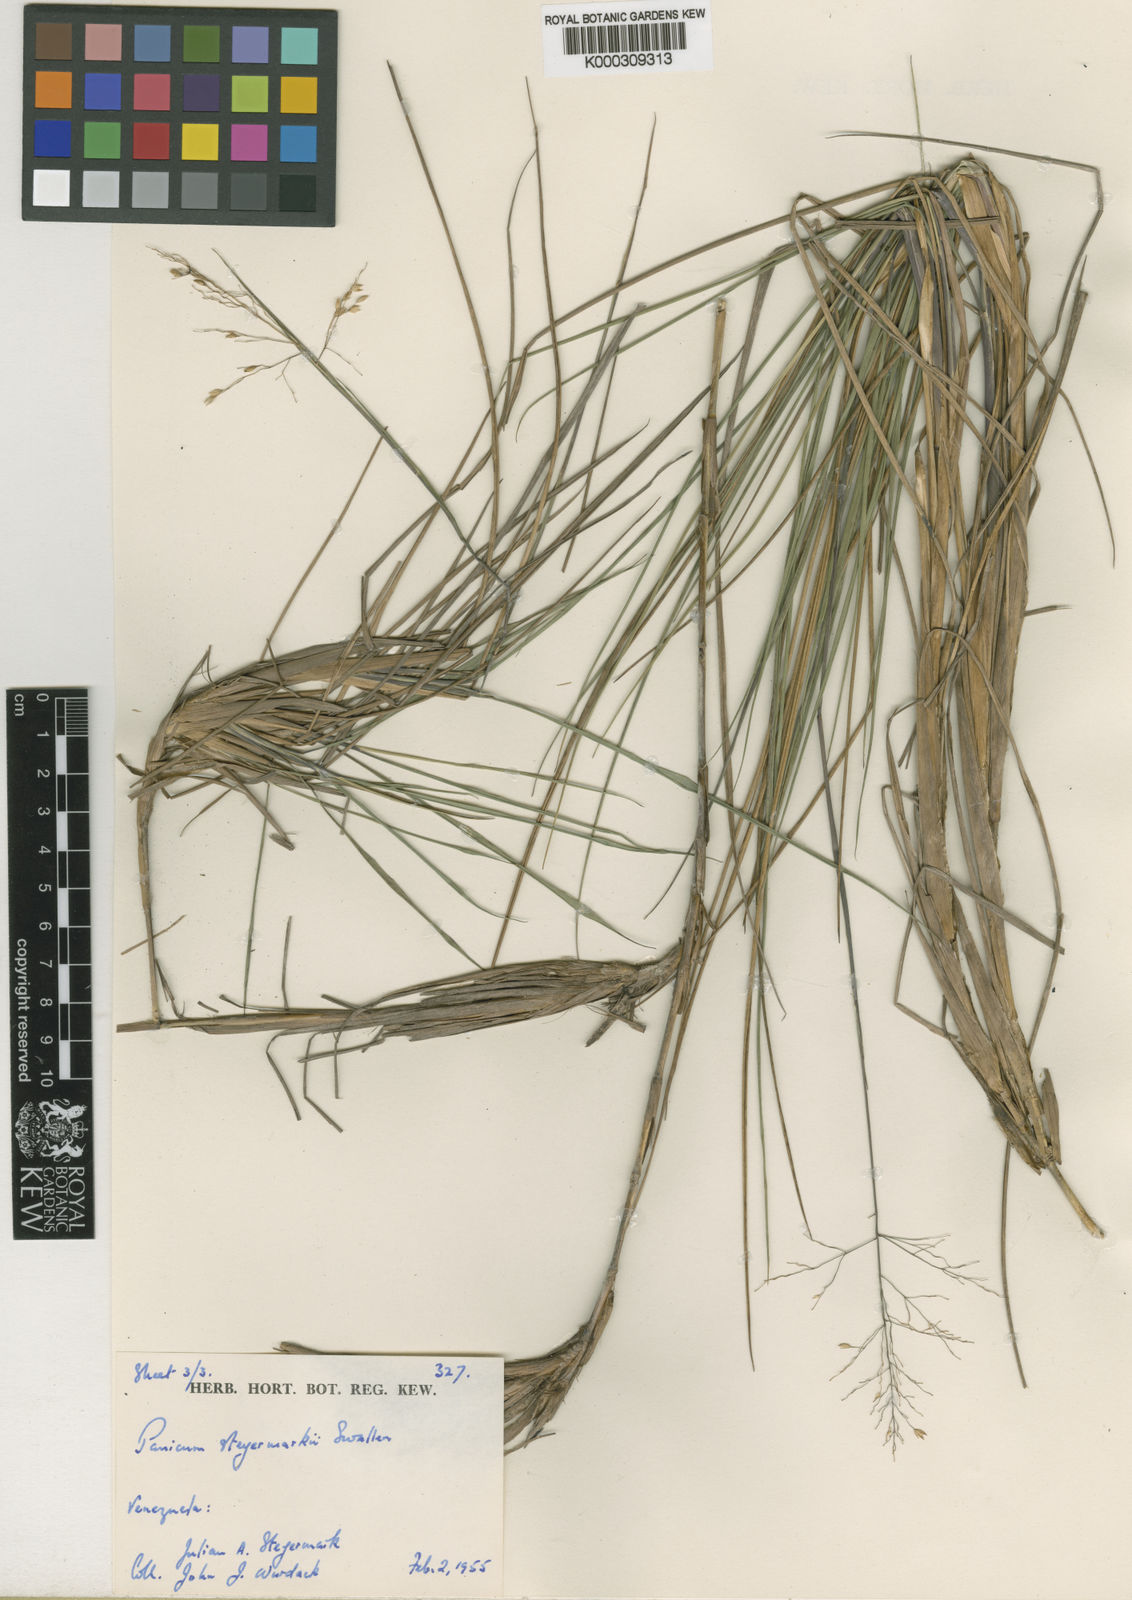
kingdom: Plantae
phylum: Tracheophyta
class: Liliopsida
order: Poales
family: Poaceae
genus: Apochloa
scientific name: Apochloa steyermarkii
